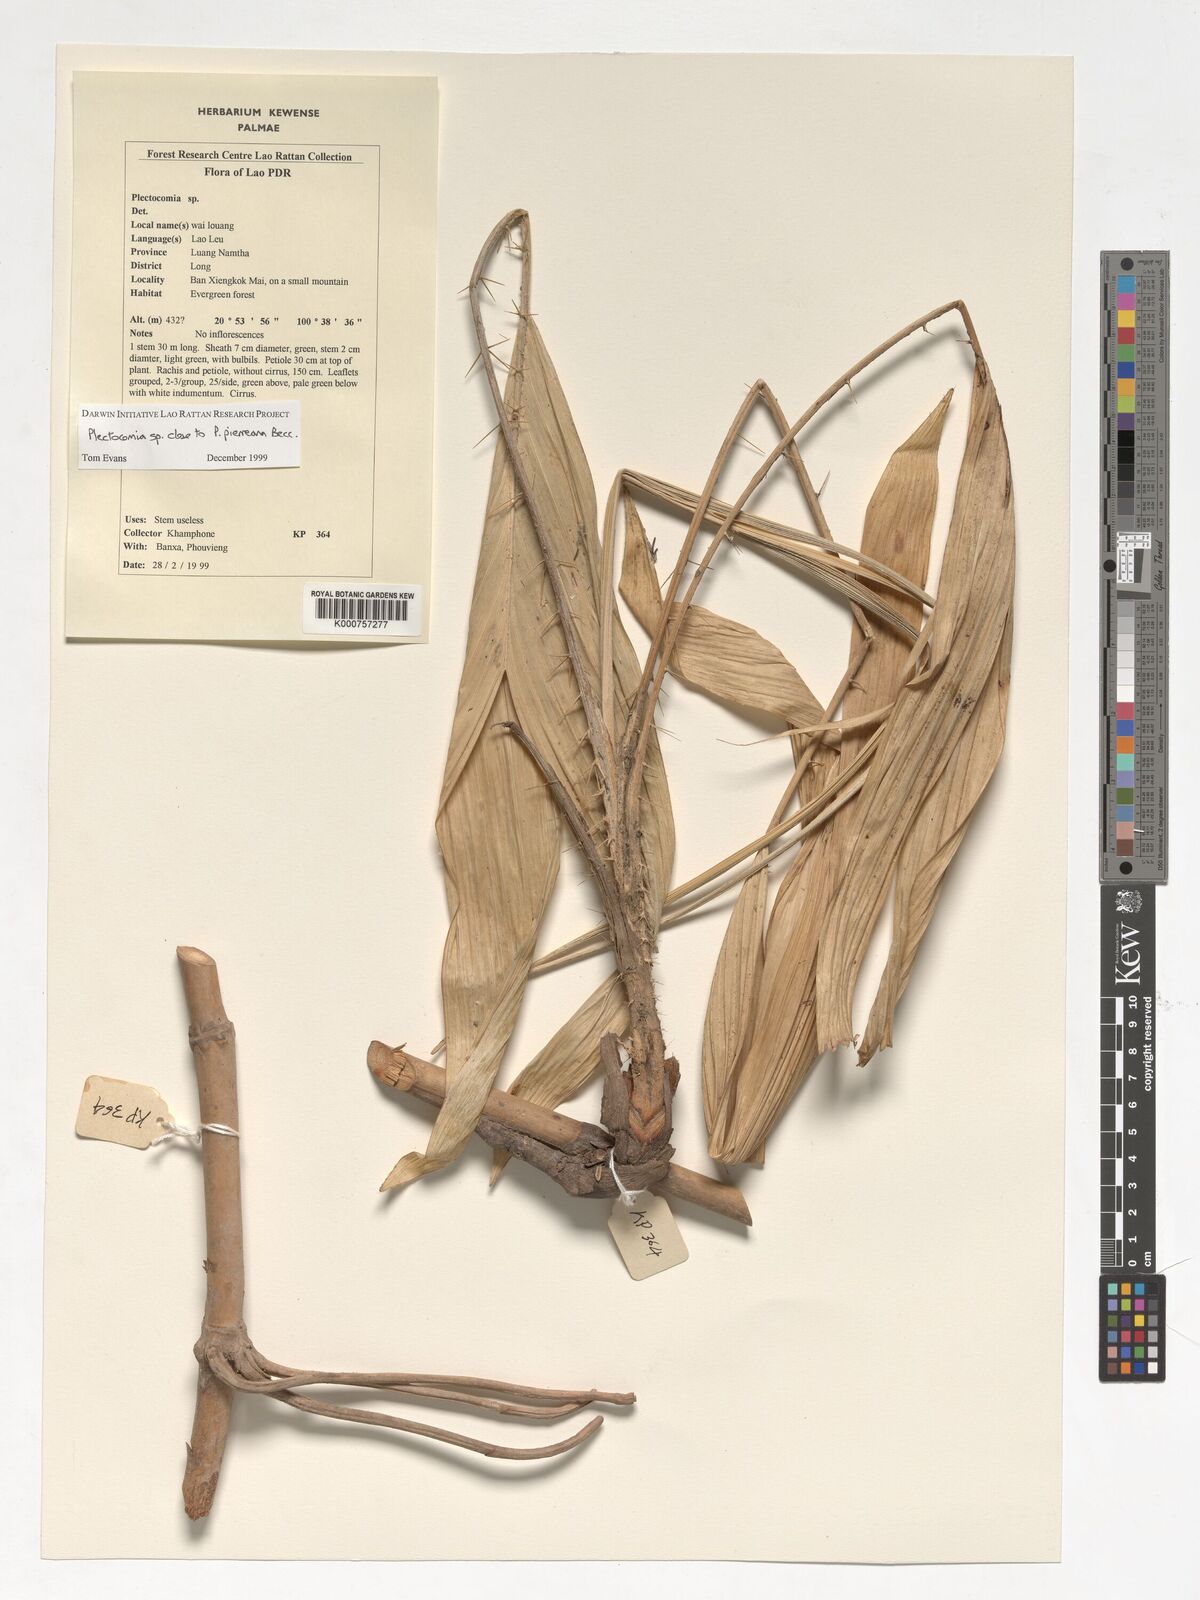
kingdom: Plantae
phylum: Tracheophyta
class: Liliopsida
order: Arecales
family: Arecaceae
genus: Plectocomia
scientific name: Plectocomia pierreana
